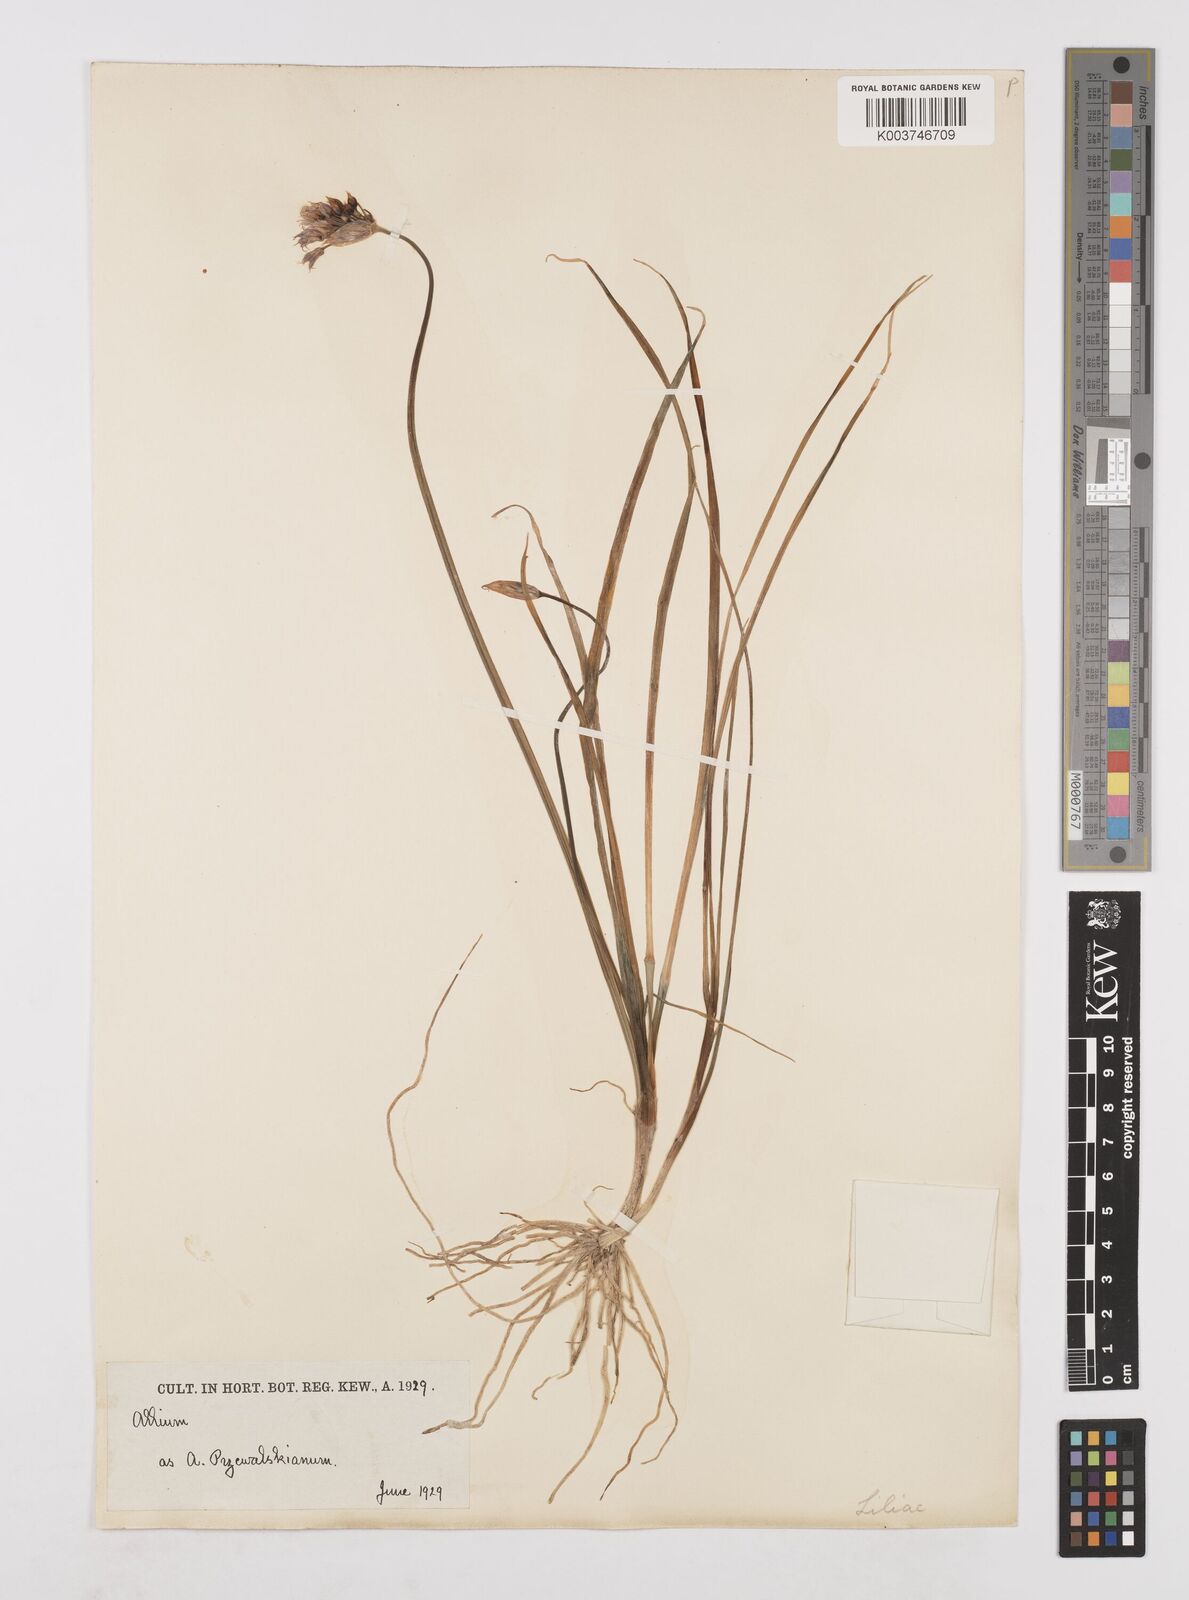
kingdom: Plantae
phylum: Tracheophyta
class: Liliopsida
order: Asparagales
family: Amaryllidaceae
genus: Allium
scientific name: Allium farreri
